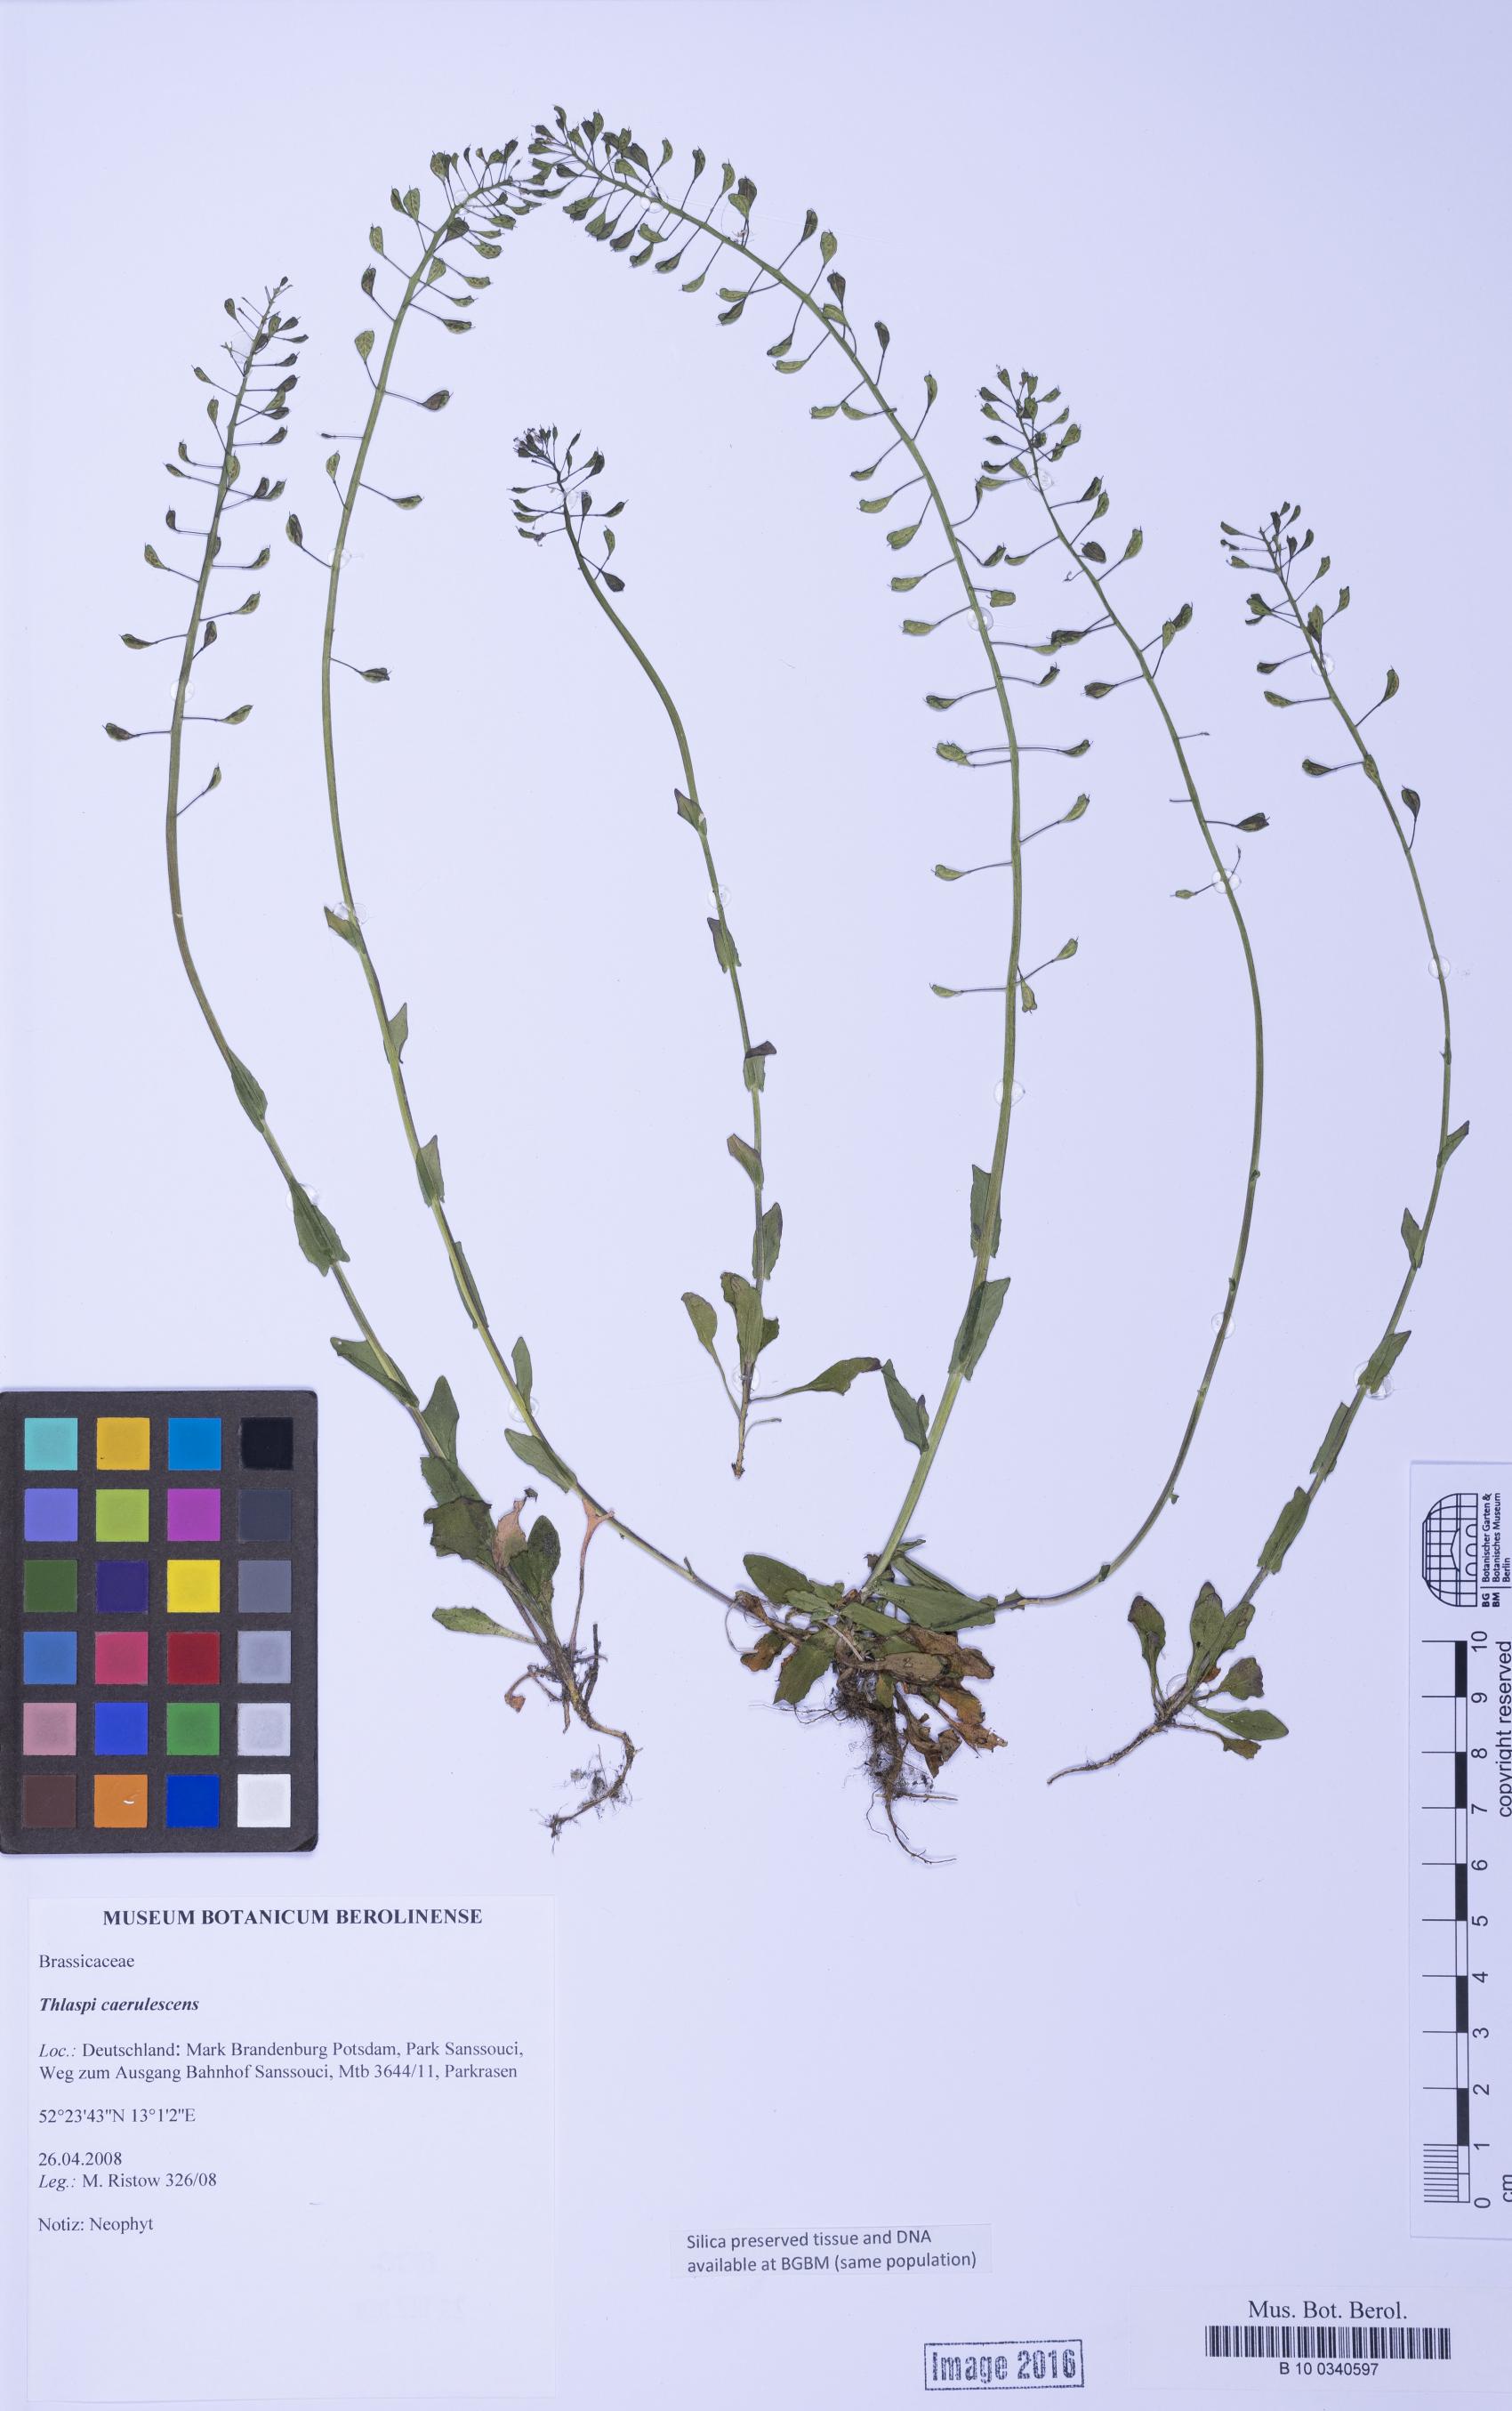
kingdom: Plantae
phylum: Tracheophyta
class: Magnoliopsida
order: Brassicales
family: Brassicaceae
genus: Noccaea
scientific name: Noccaea caerulescens
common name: Alpine pennycress
